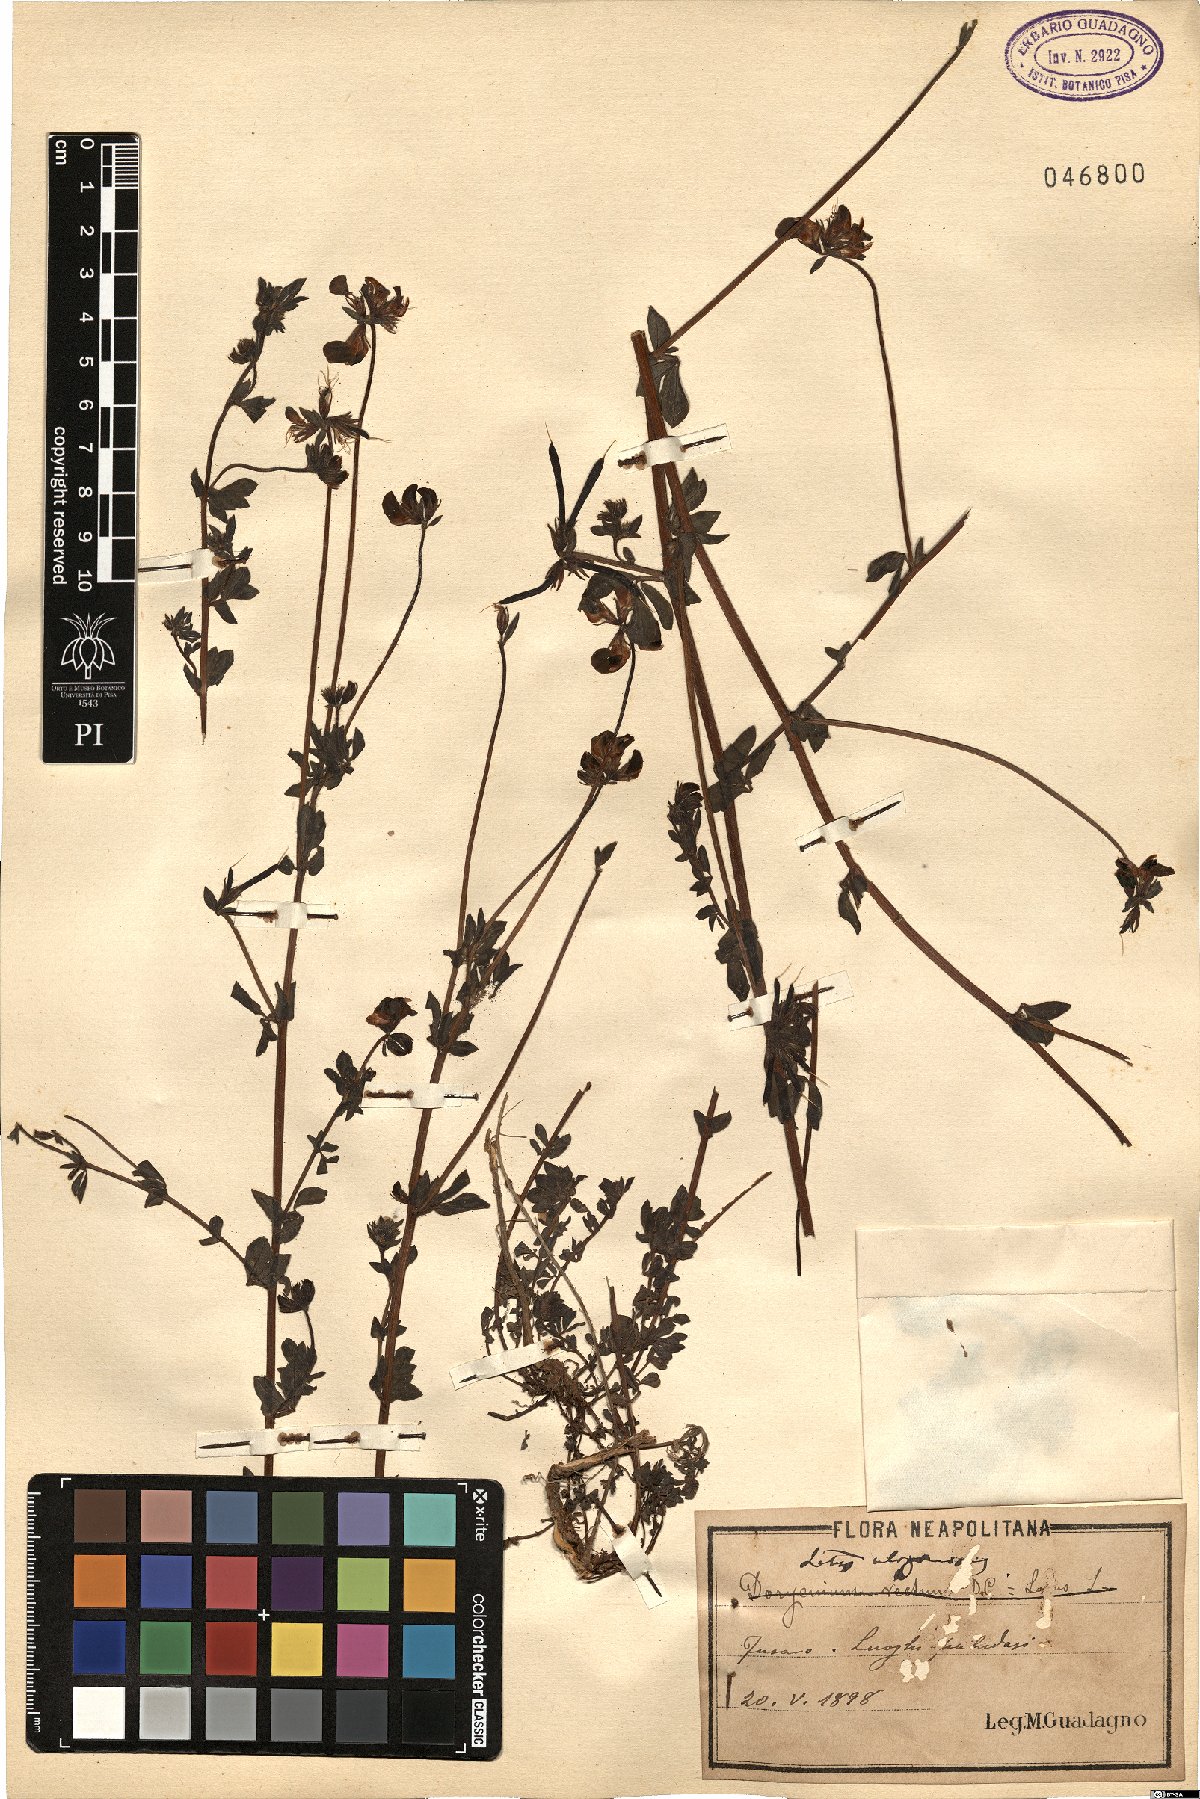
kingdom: Plantae
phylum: Tracheophyta
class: Magnoliopsida
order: Fabales
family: Fabaceae
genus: Lotus
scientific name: Lotus pedunculatus
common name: Greater birdsfoot-trefoil
